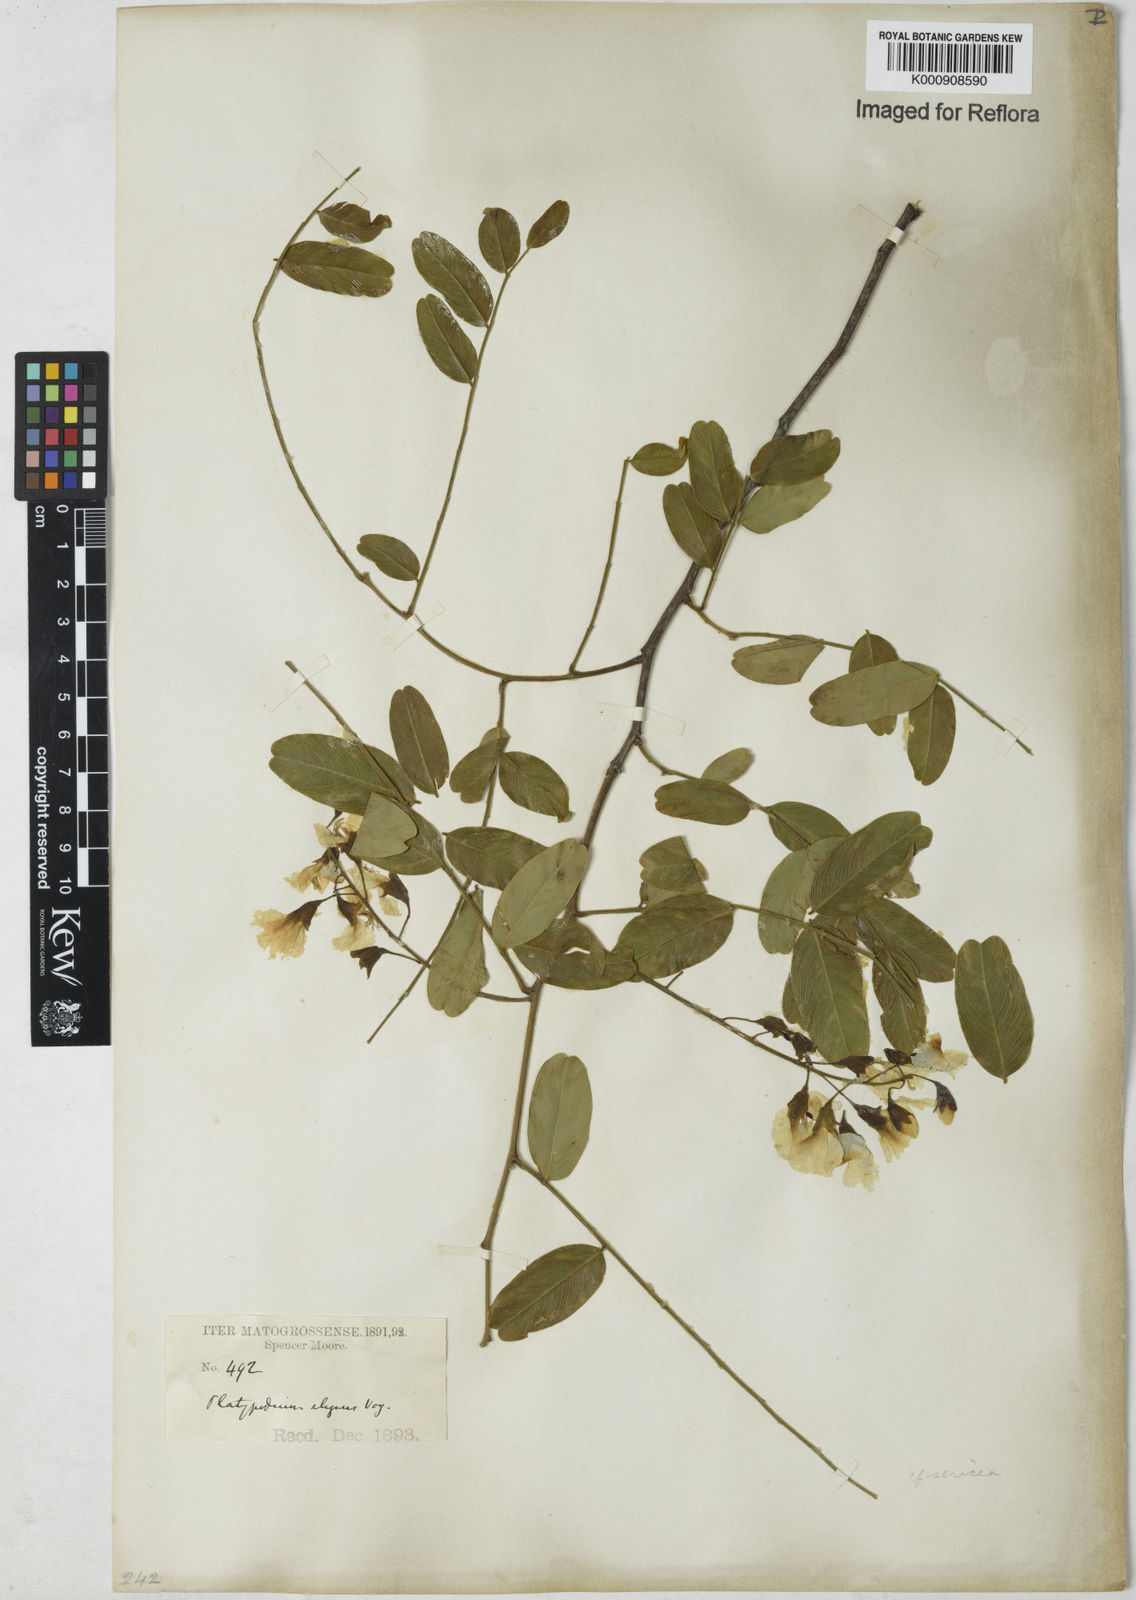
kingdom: Plantae
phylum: Tracheophyta
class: Magnoliopsida
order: Fabales
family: Fabaceae
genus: Platypodium
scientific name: Platypodium
